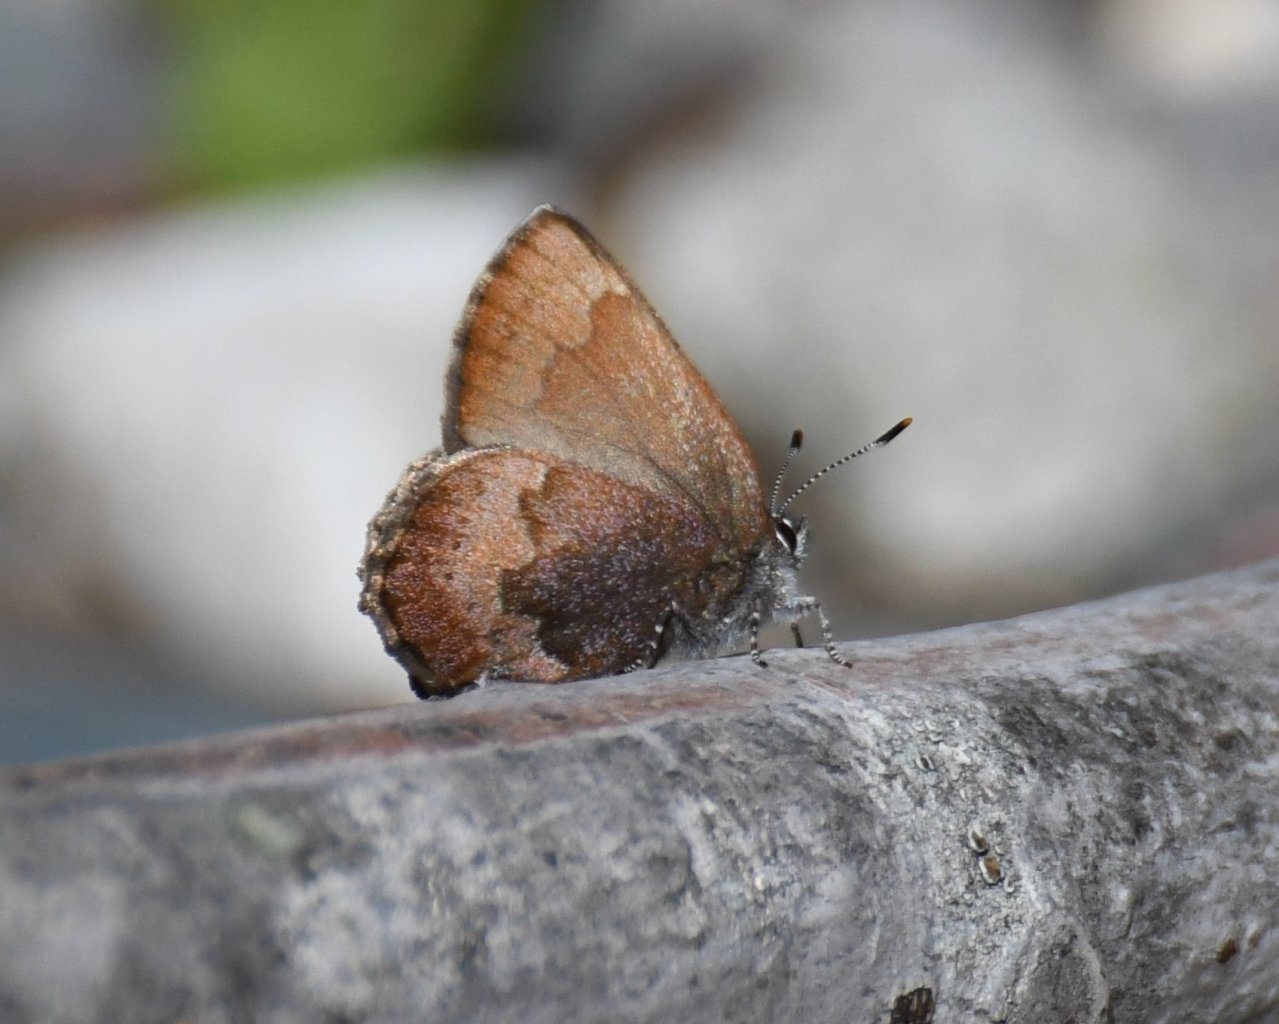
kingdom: Animalia
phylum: Arthropoda
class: Insecta
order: Lepidoptera
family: Lycaenidae
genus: Incisalia
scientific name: Incisalia irioides
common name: Brown Elfin
